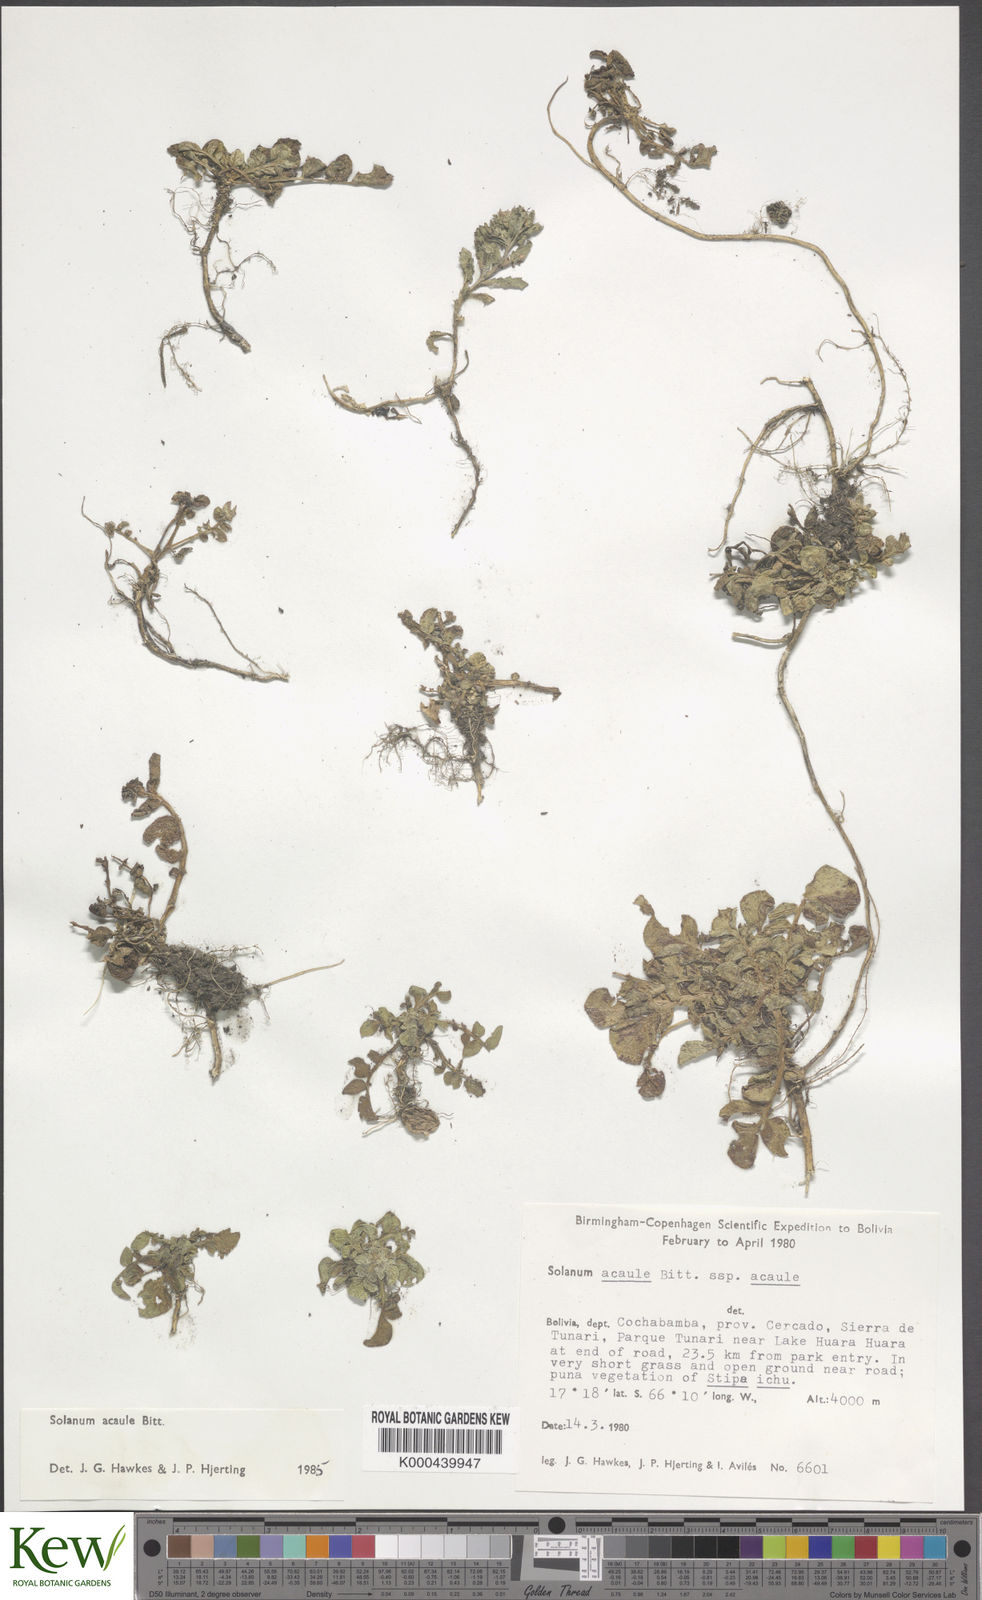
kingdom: Plantae
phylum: Tracheophyta
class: Magnoliopsida
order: Solanales
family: Solanaceae
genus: Solanum
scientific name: Solanum acaule
